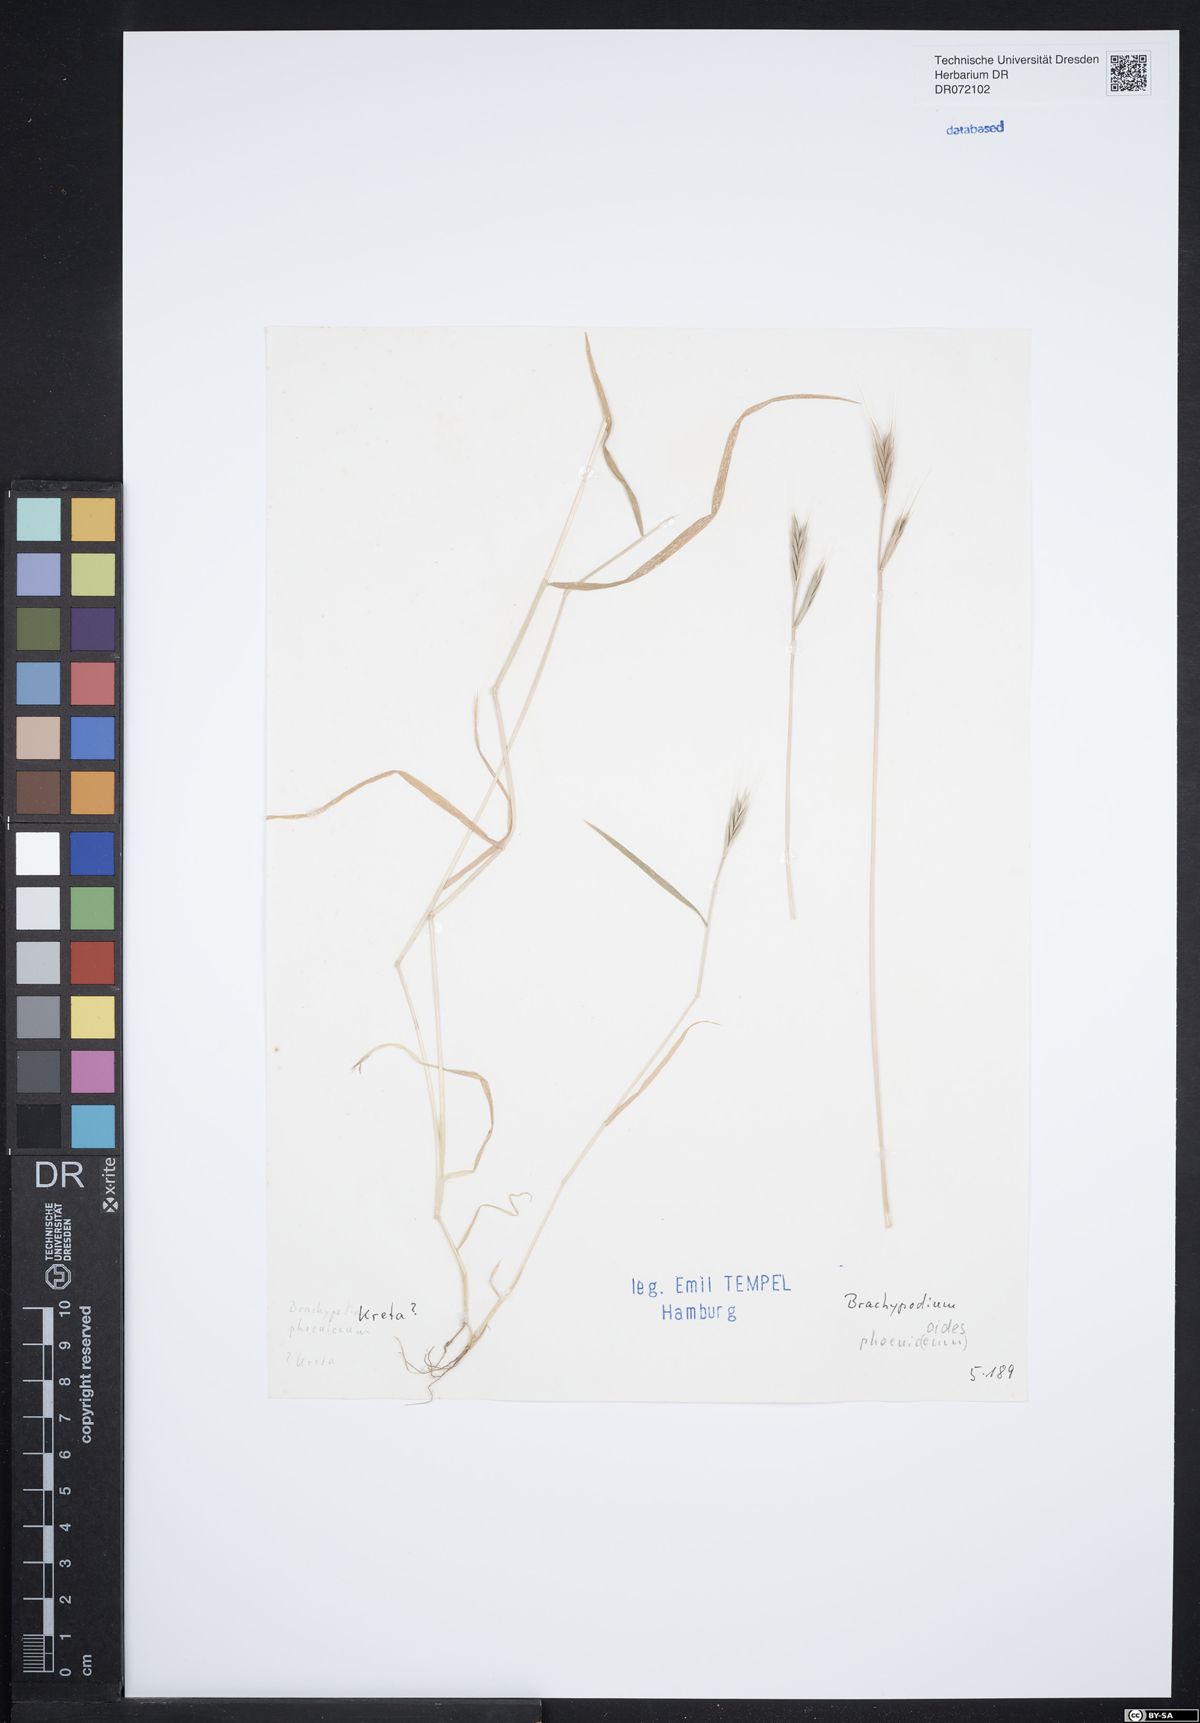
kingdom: Plantae
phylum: Tracheophyta
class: Liliopsida
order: Poales
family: Poaceae
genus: Brachypodium
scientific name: Brachypodium phoenicoides
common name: Thinleaf false brome
